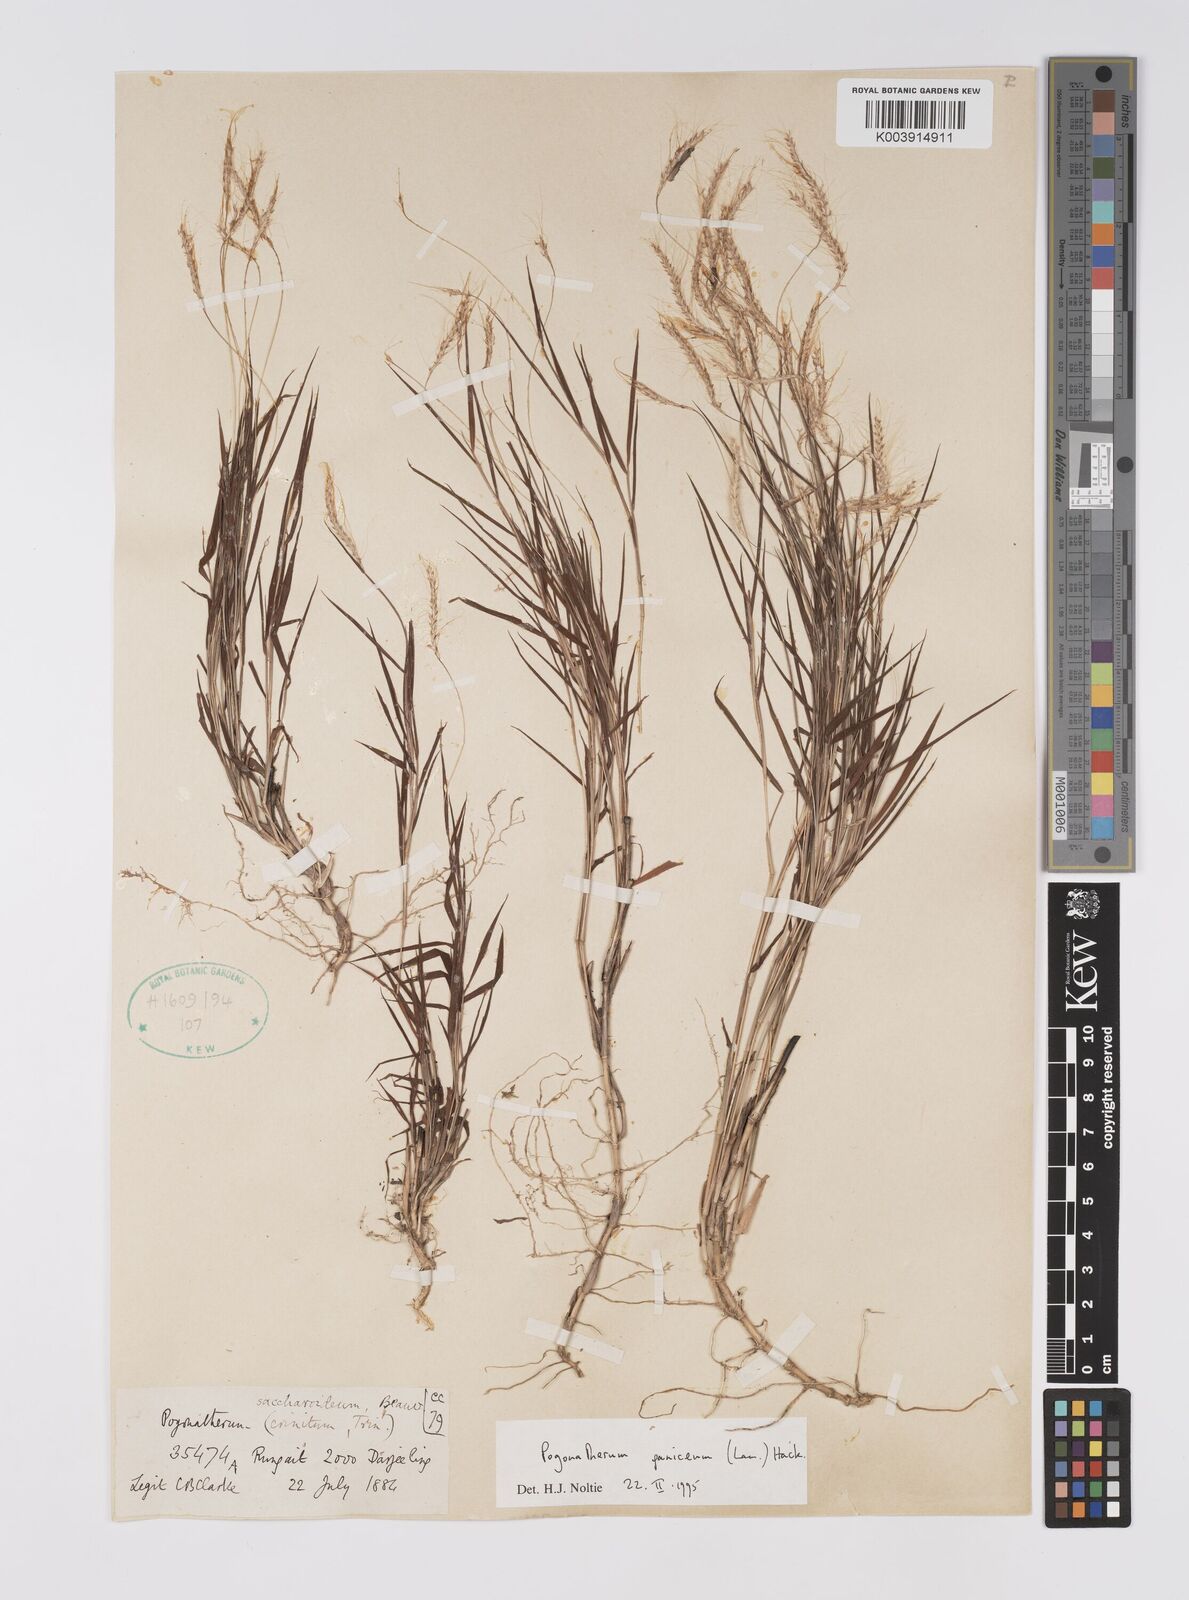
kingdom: Plantae
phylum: Tracheophyta
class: Liliopsida
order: Poales
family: Poaceae
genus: Pogonatherum
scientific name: Pogonatherum paniceum
